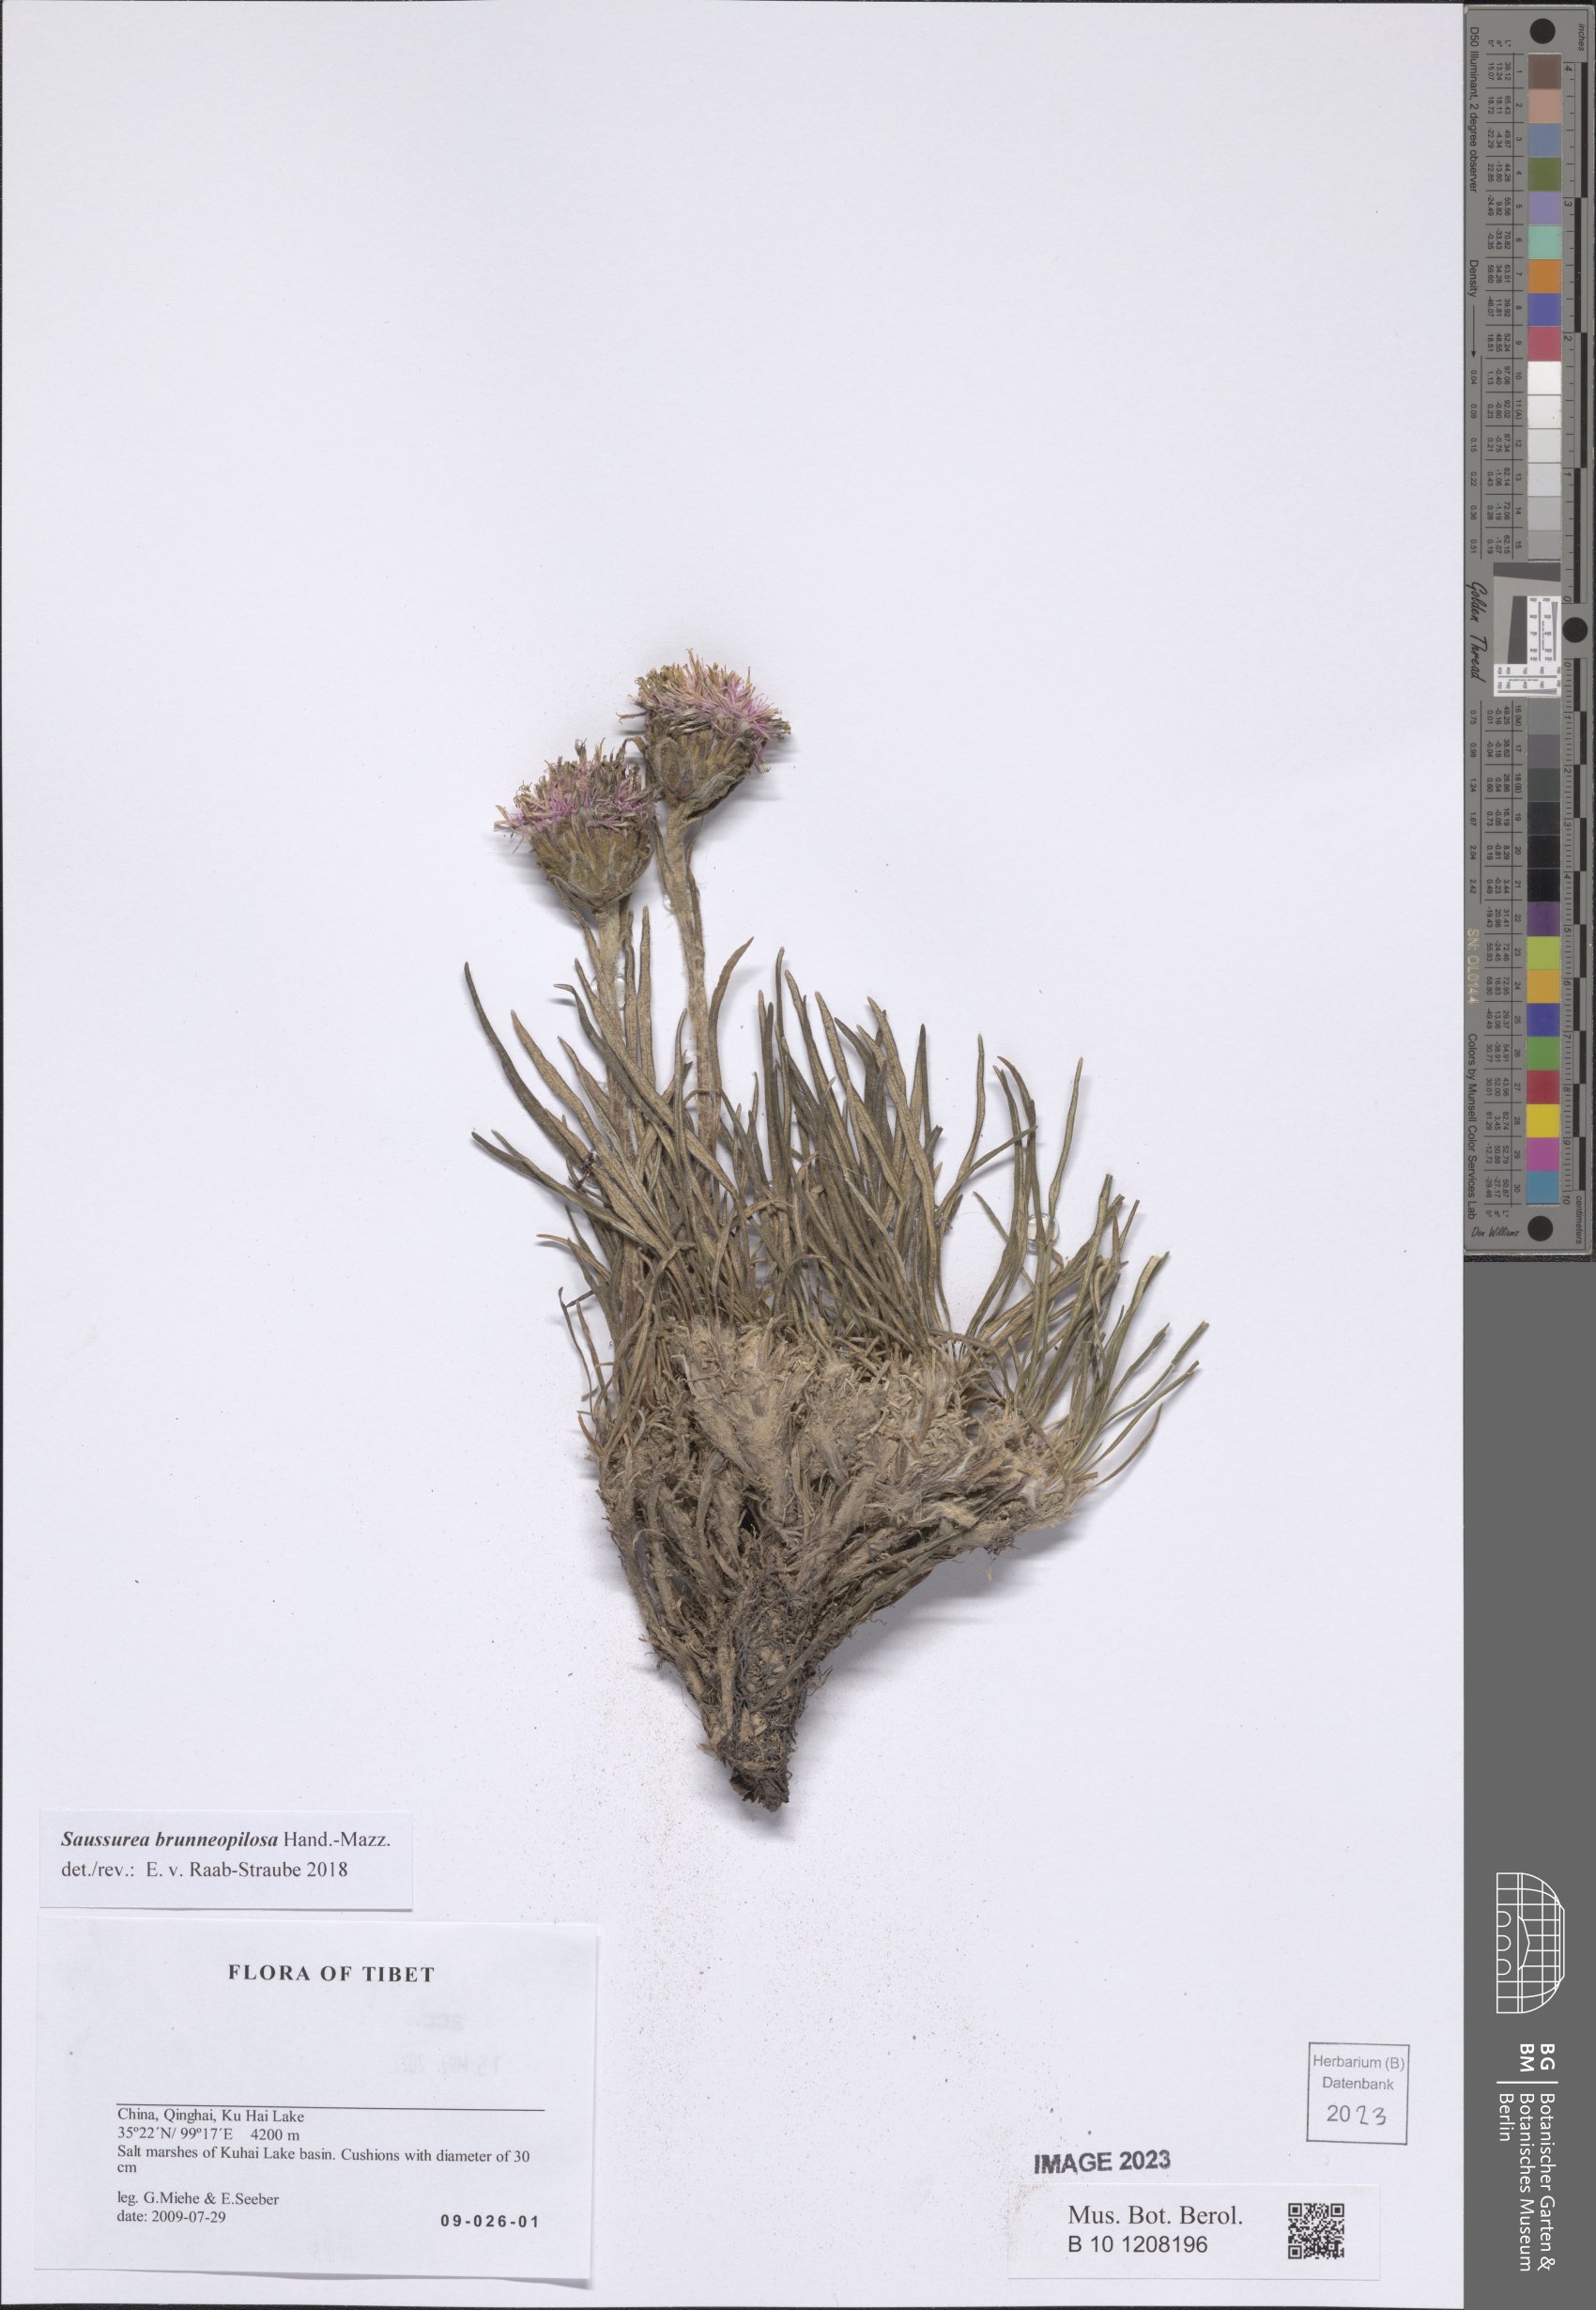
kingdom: Plantae
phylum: Tracheophyta
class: Magnoliopsida
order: Asterales
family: Asteraceae
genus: Saussurea
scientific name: Saussurea brunneopilosa
